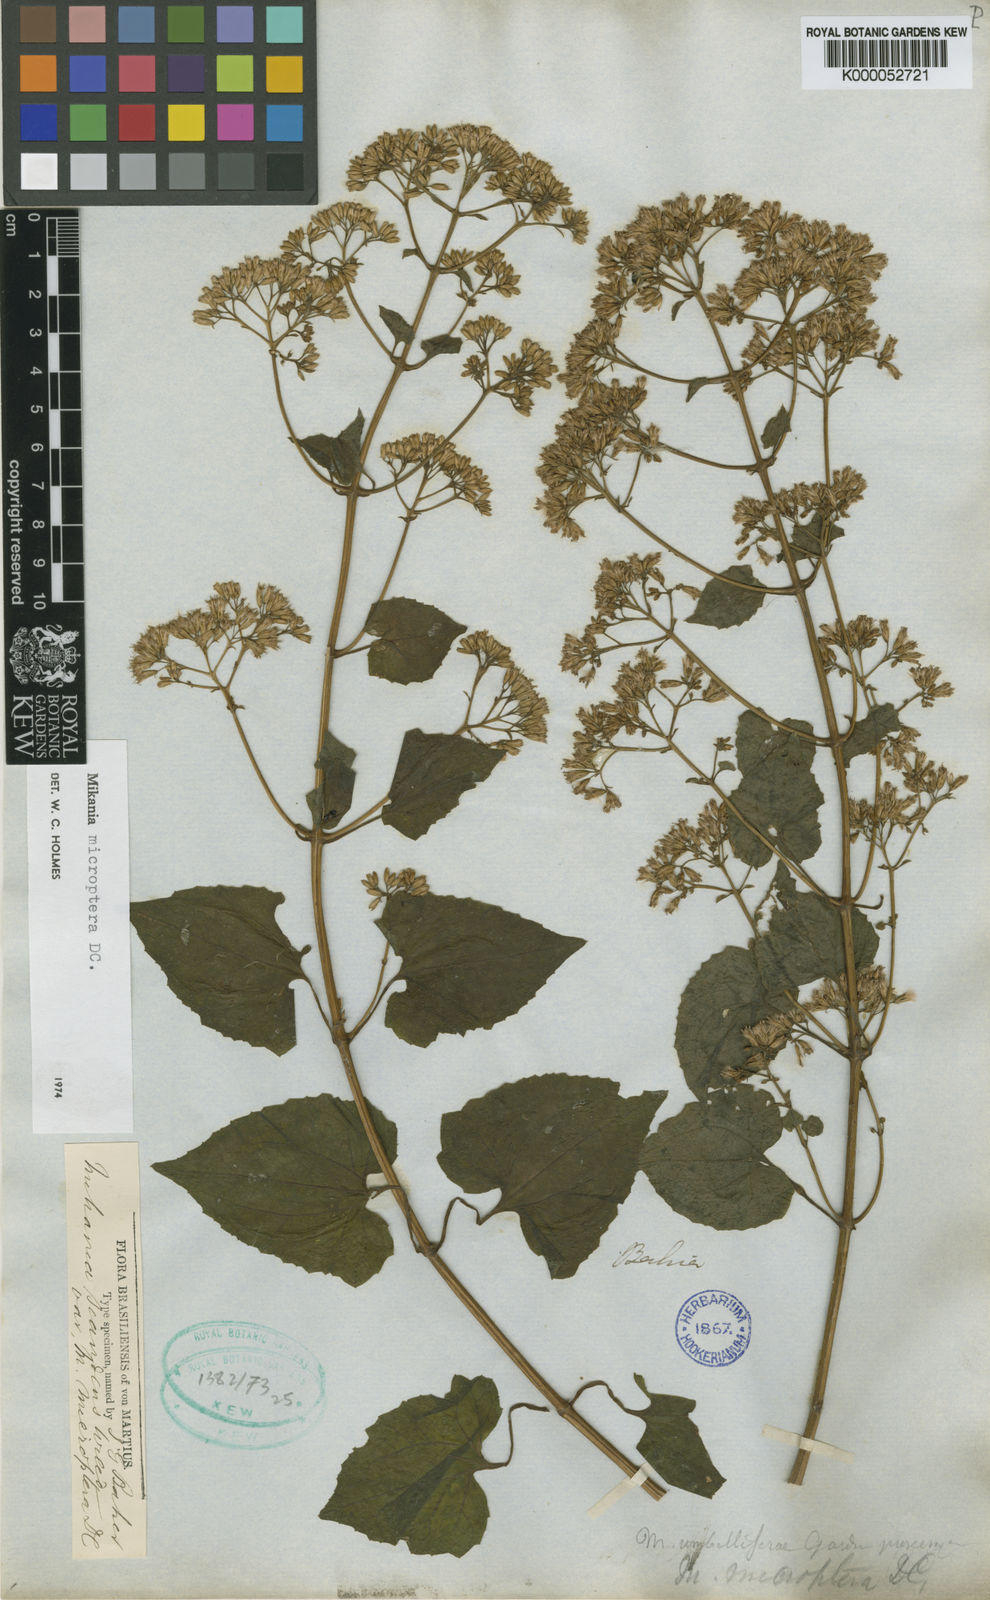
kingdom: Plantae
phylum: Tracheophyta
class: Magnoliopsida
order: Asterales
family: Asteraceae
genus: Mikania
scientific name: Mikania microptera
